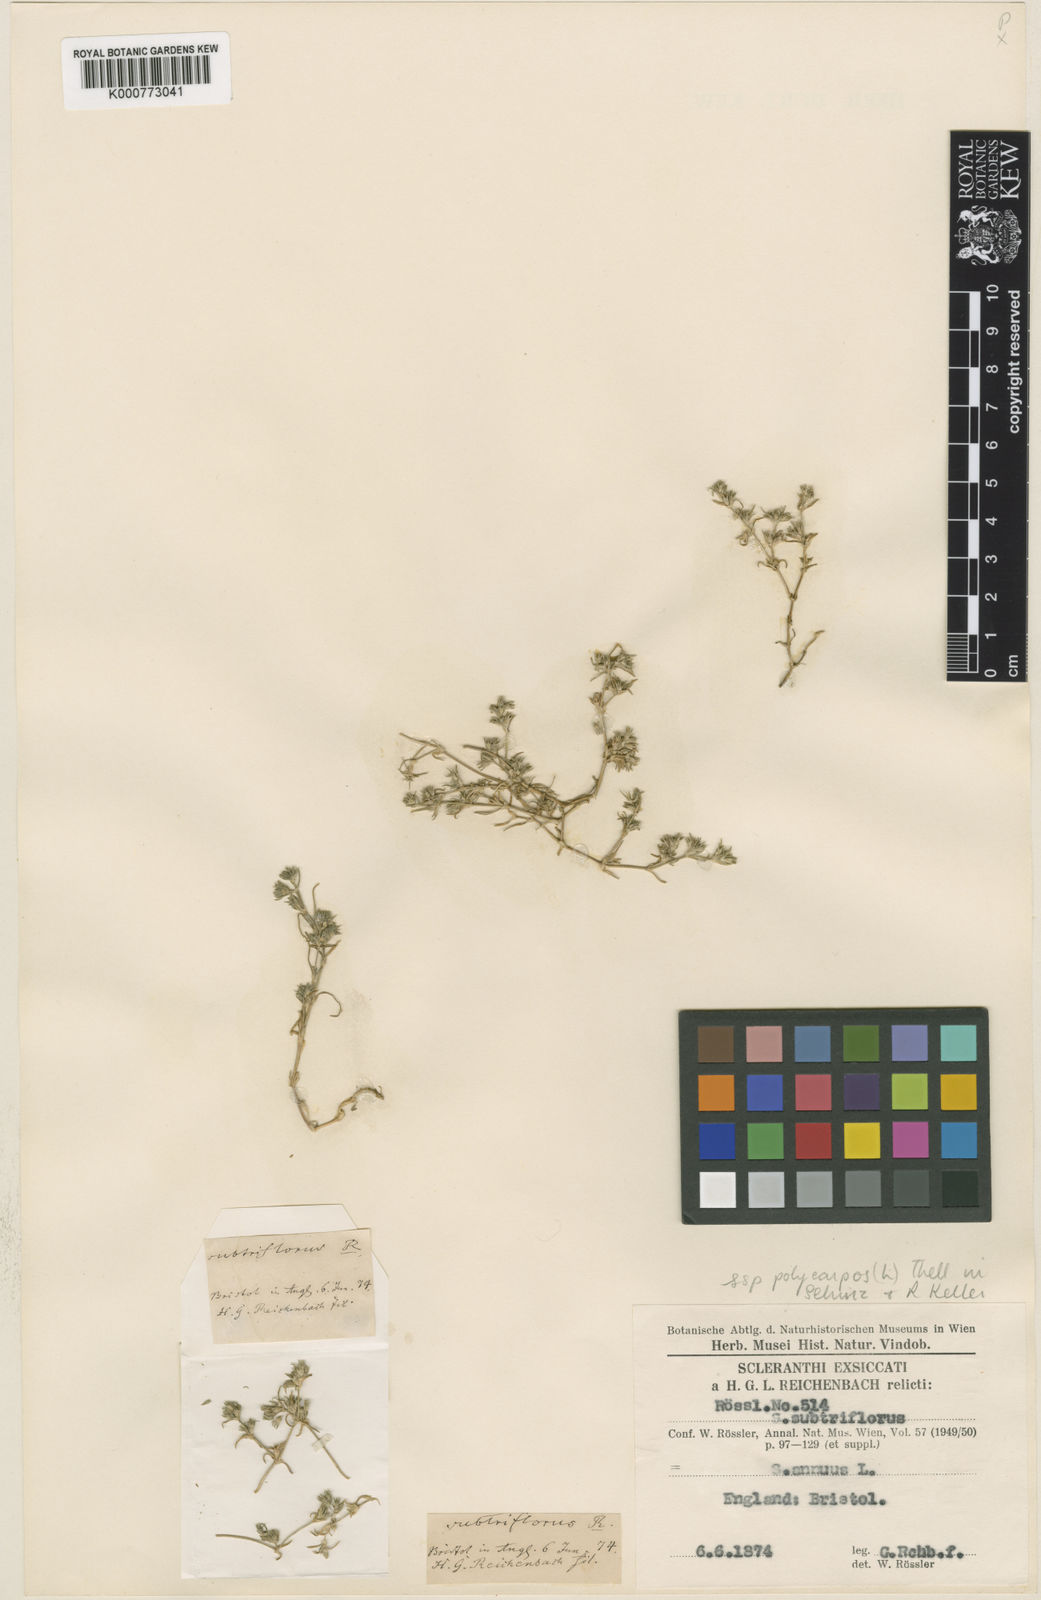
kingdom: Plantae
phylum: Tracheophyta
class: Magnoliopsida
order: Caryophyllales
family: Caryophyllaceae
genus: Scleranthus
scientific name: Scleranthus annuus
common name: Annual knawel
